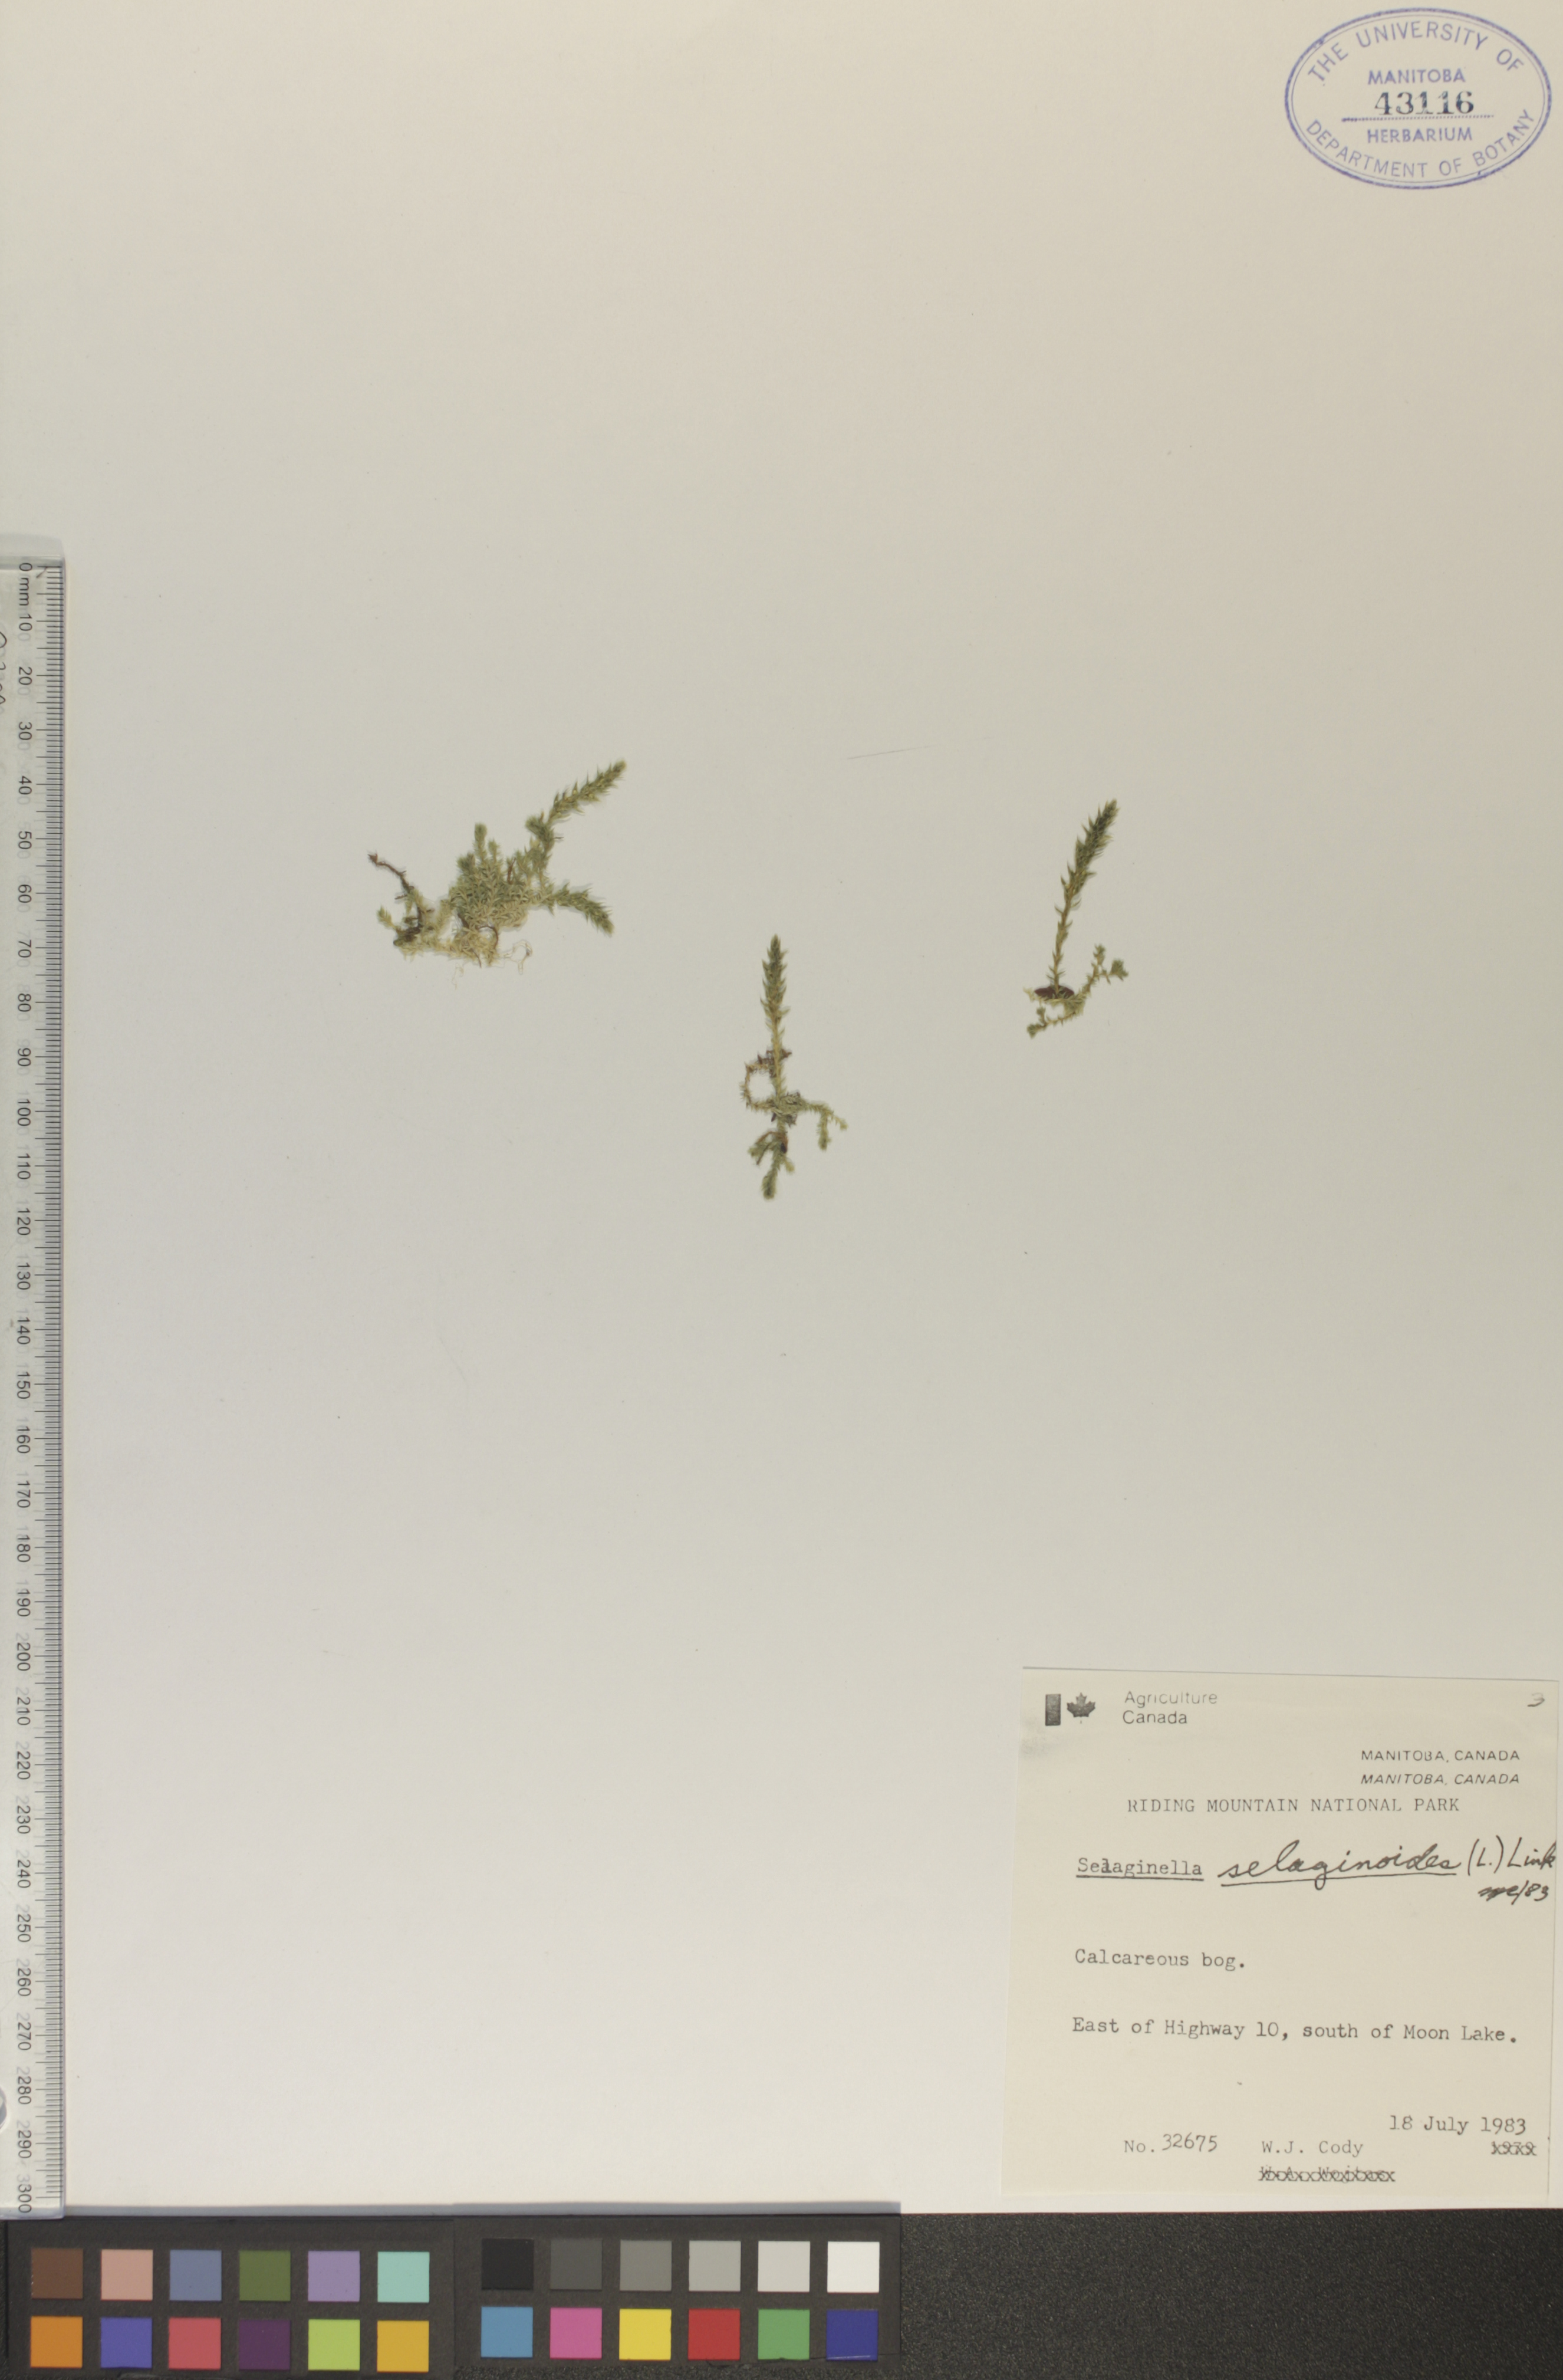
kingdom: Plantae
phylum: Tracheophyta
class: Lycopodiopsida
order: Selaginellales
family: Selaginellaceae
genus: Selaginella
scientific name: Selaginella selaginoides
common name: Prickly mountain-moss
